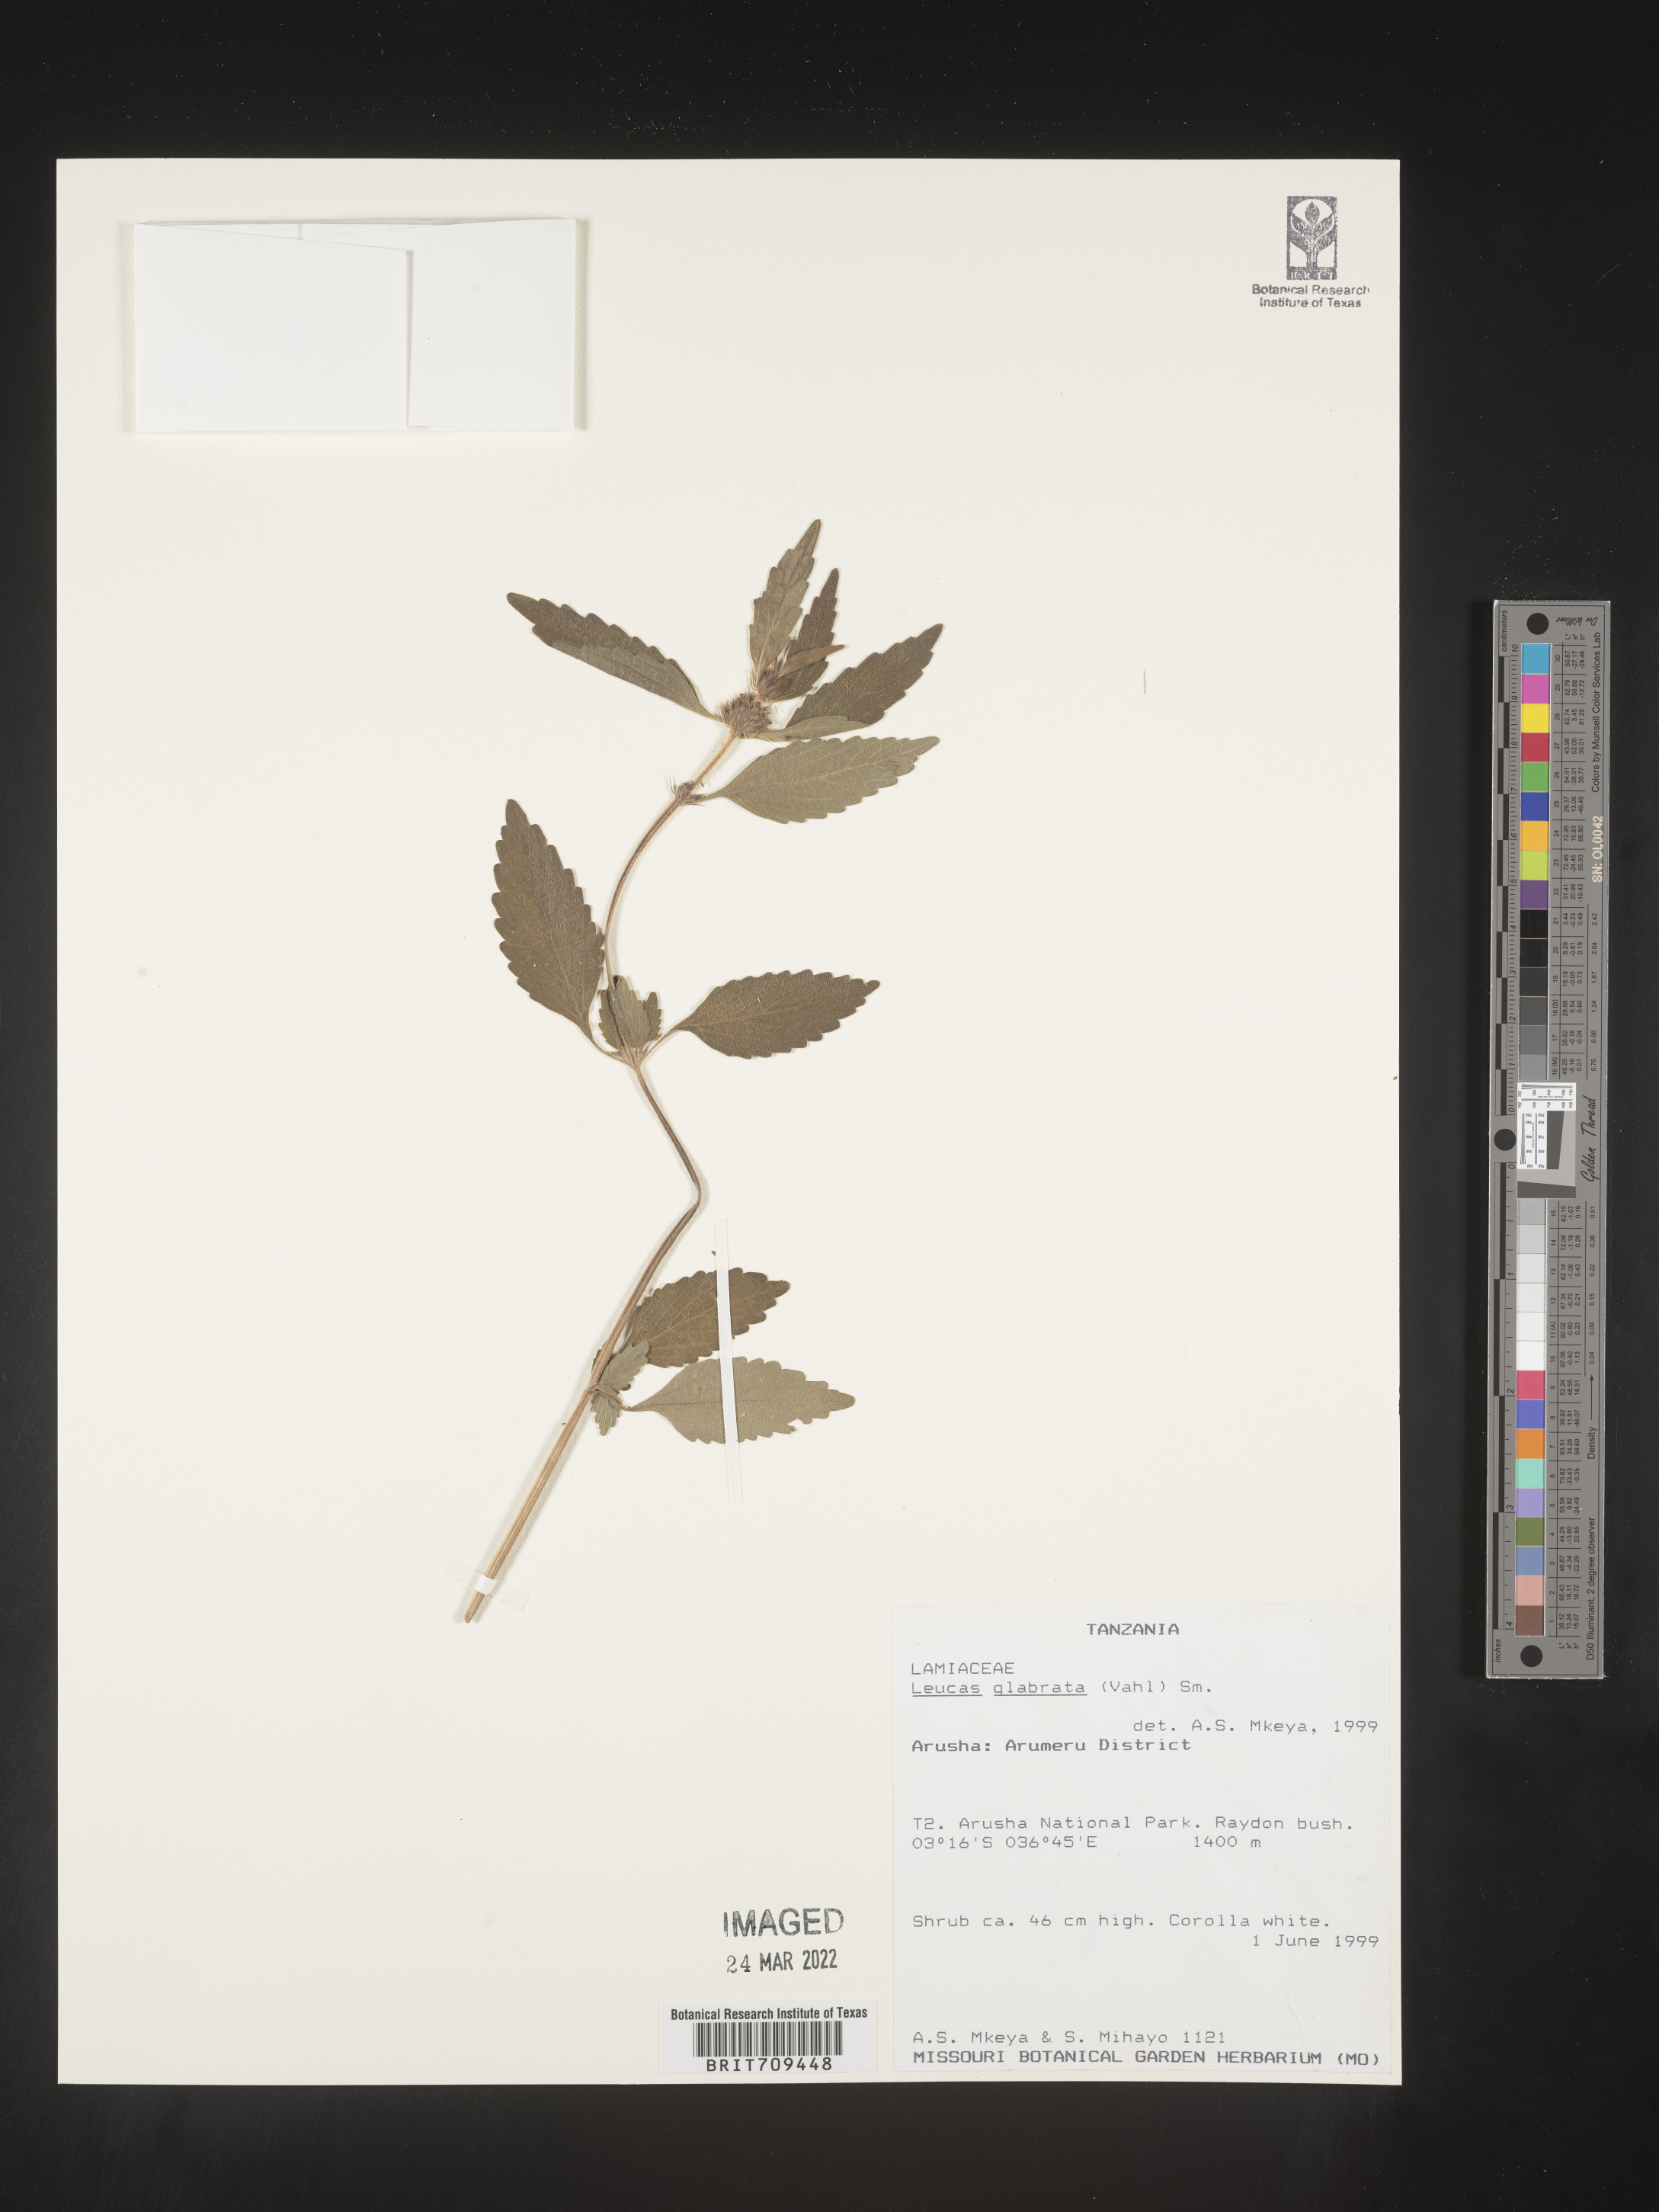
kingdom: Plantae
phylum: Tracheophyta
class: Magnoliopsida
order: Lamiales
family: Lamiaceae
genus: Leucas
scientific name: Leucas
